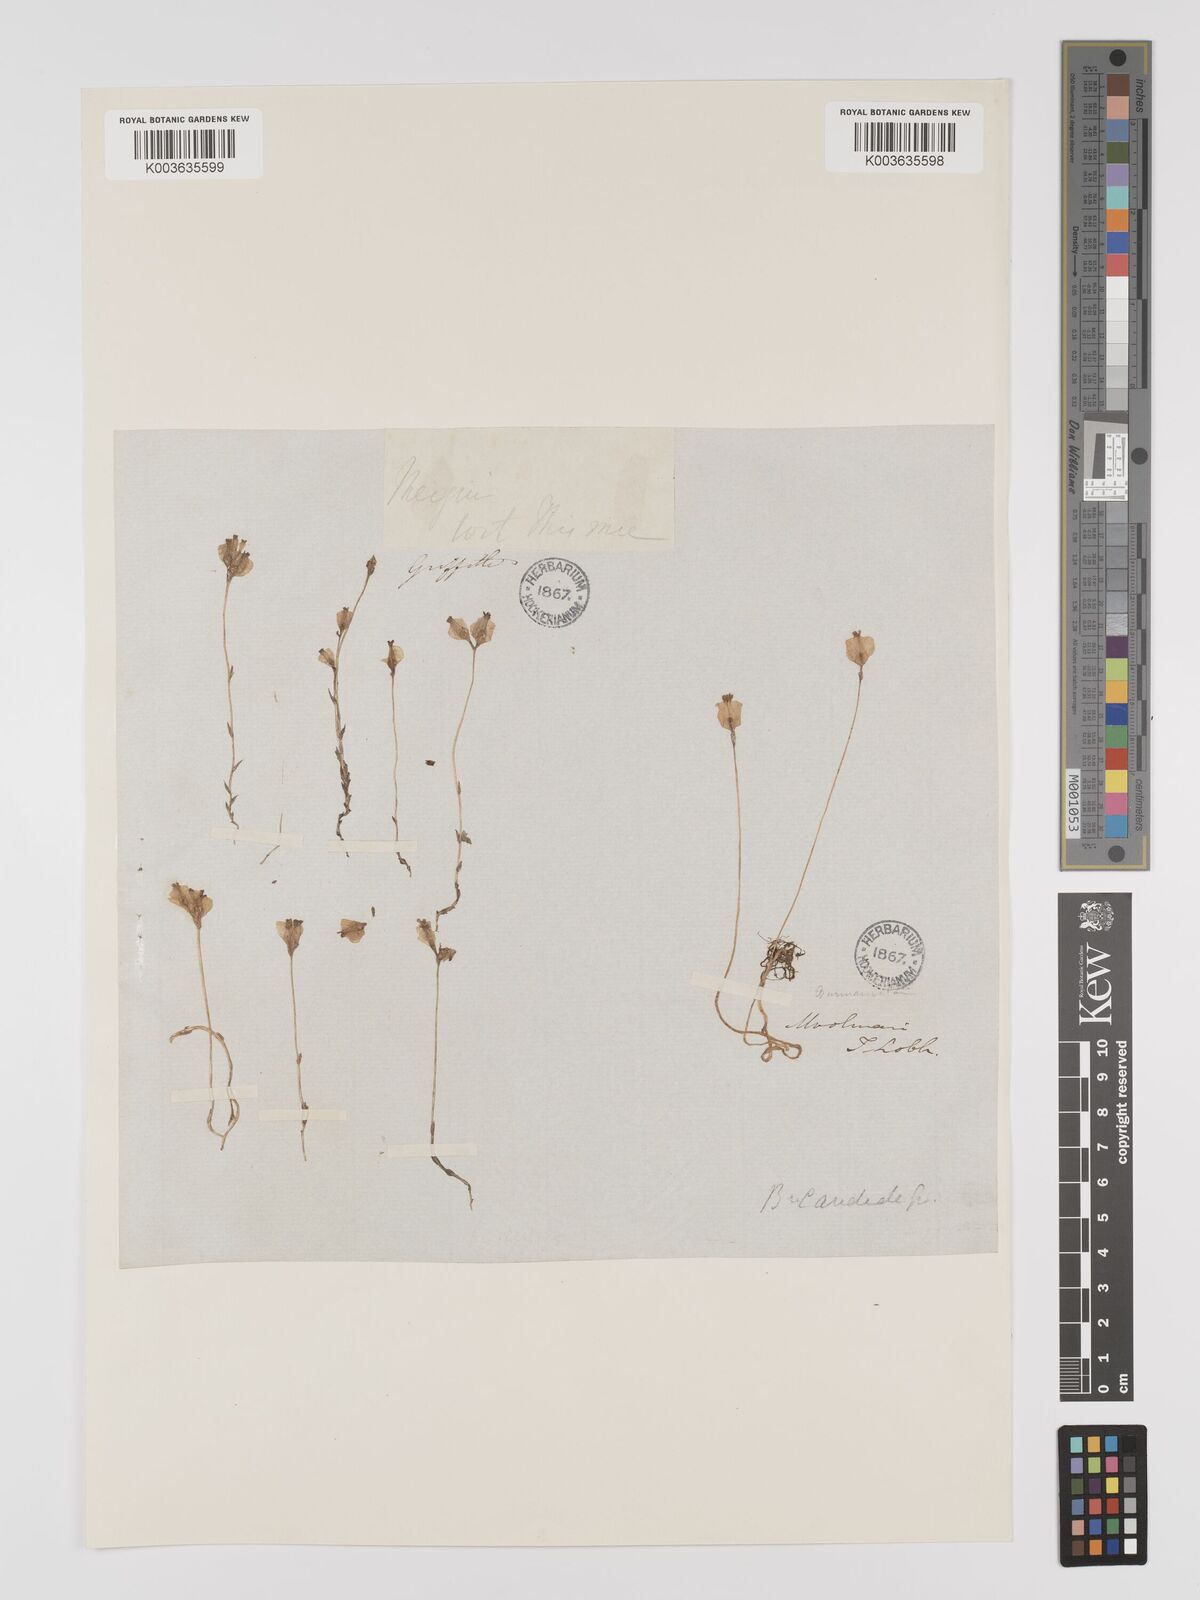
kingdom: Plantae
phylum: Tracheophyta
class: Liliopsida
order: Dioscoreales
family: Burmanniaceae
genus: Burmannia
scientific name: Burmannia candida
